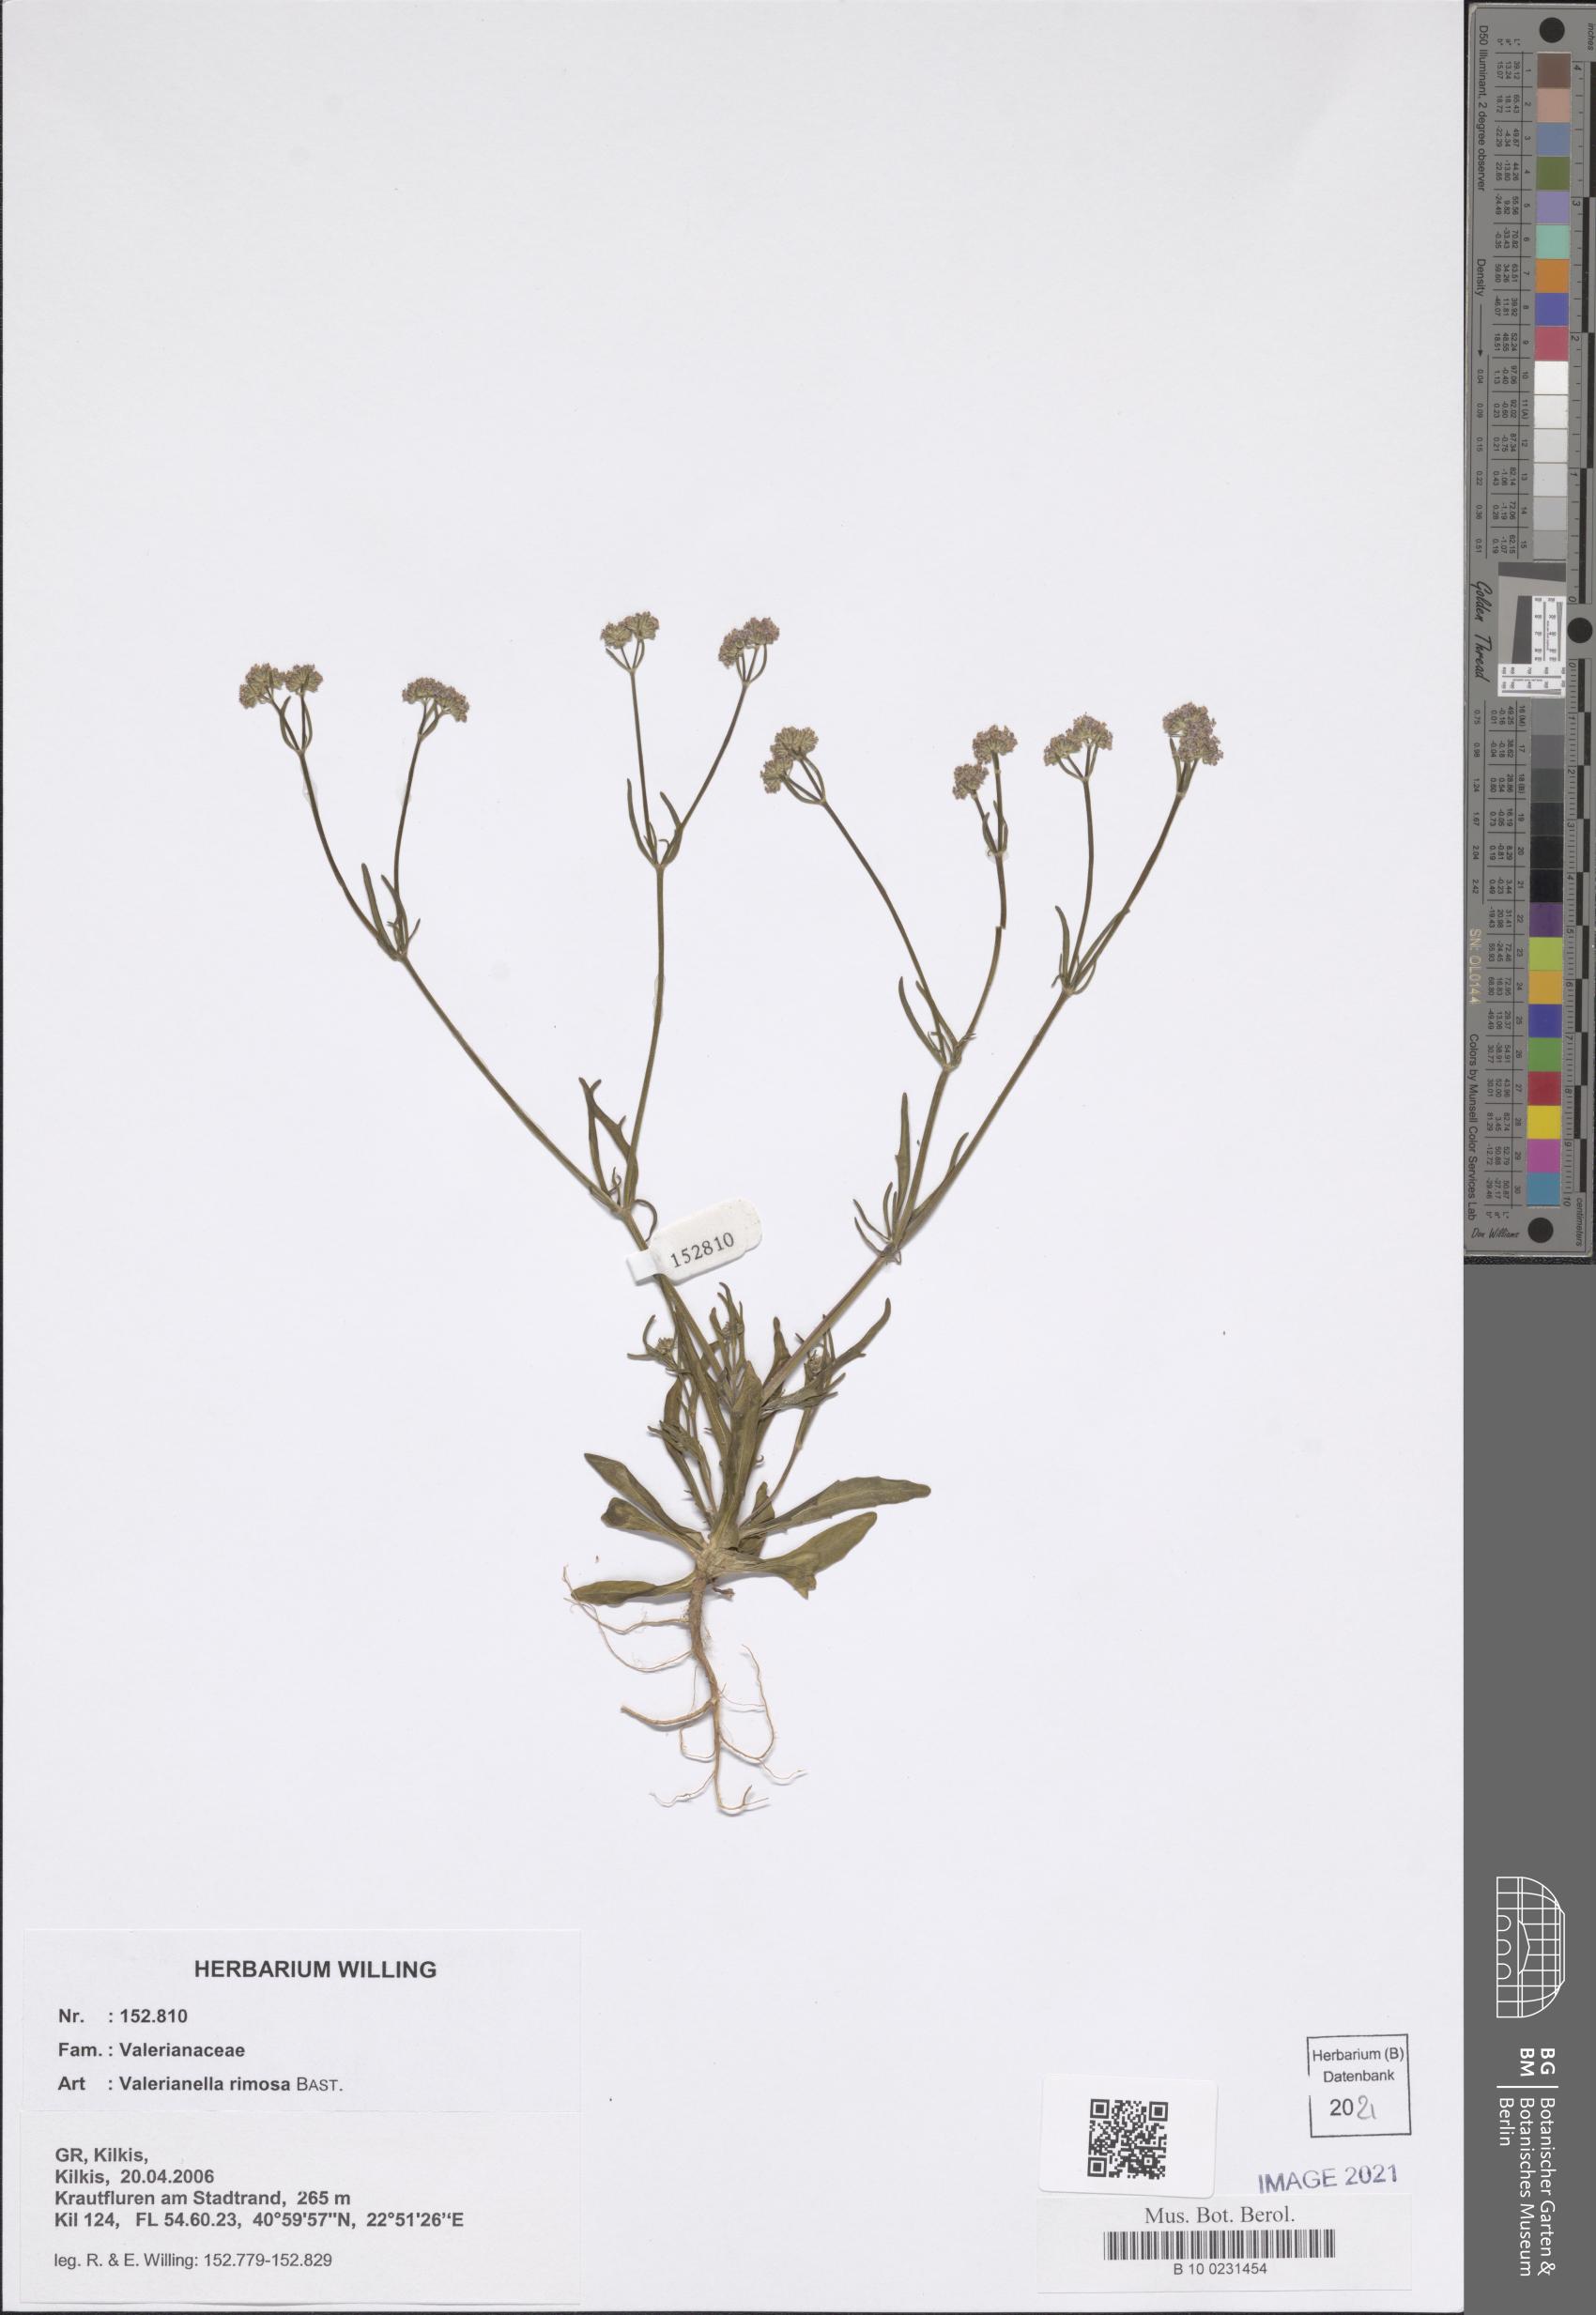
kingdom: Plantae
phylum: Tracheophyta
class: Magnoliopsida
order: Dipsacales
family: Caprifoliaceae
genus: Valerianella
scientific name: Valerianella rimosa
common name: Broad-fruited cornsalad
